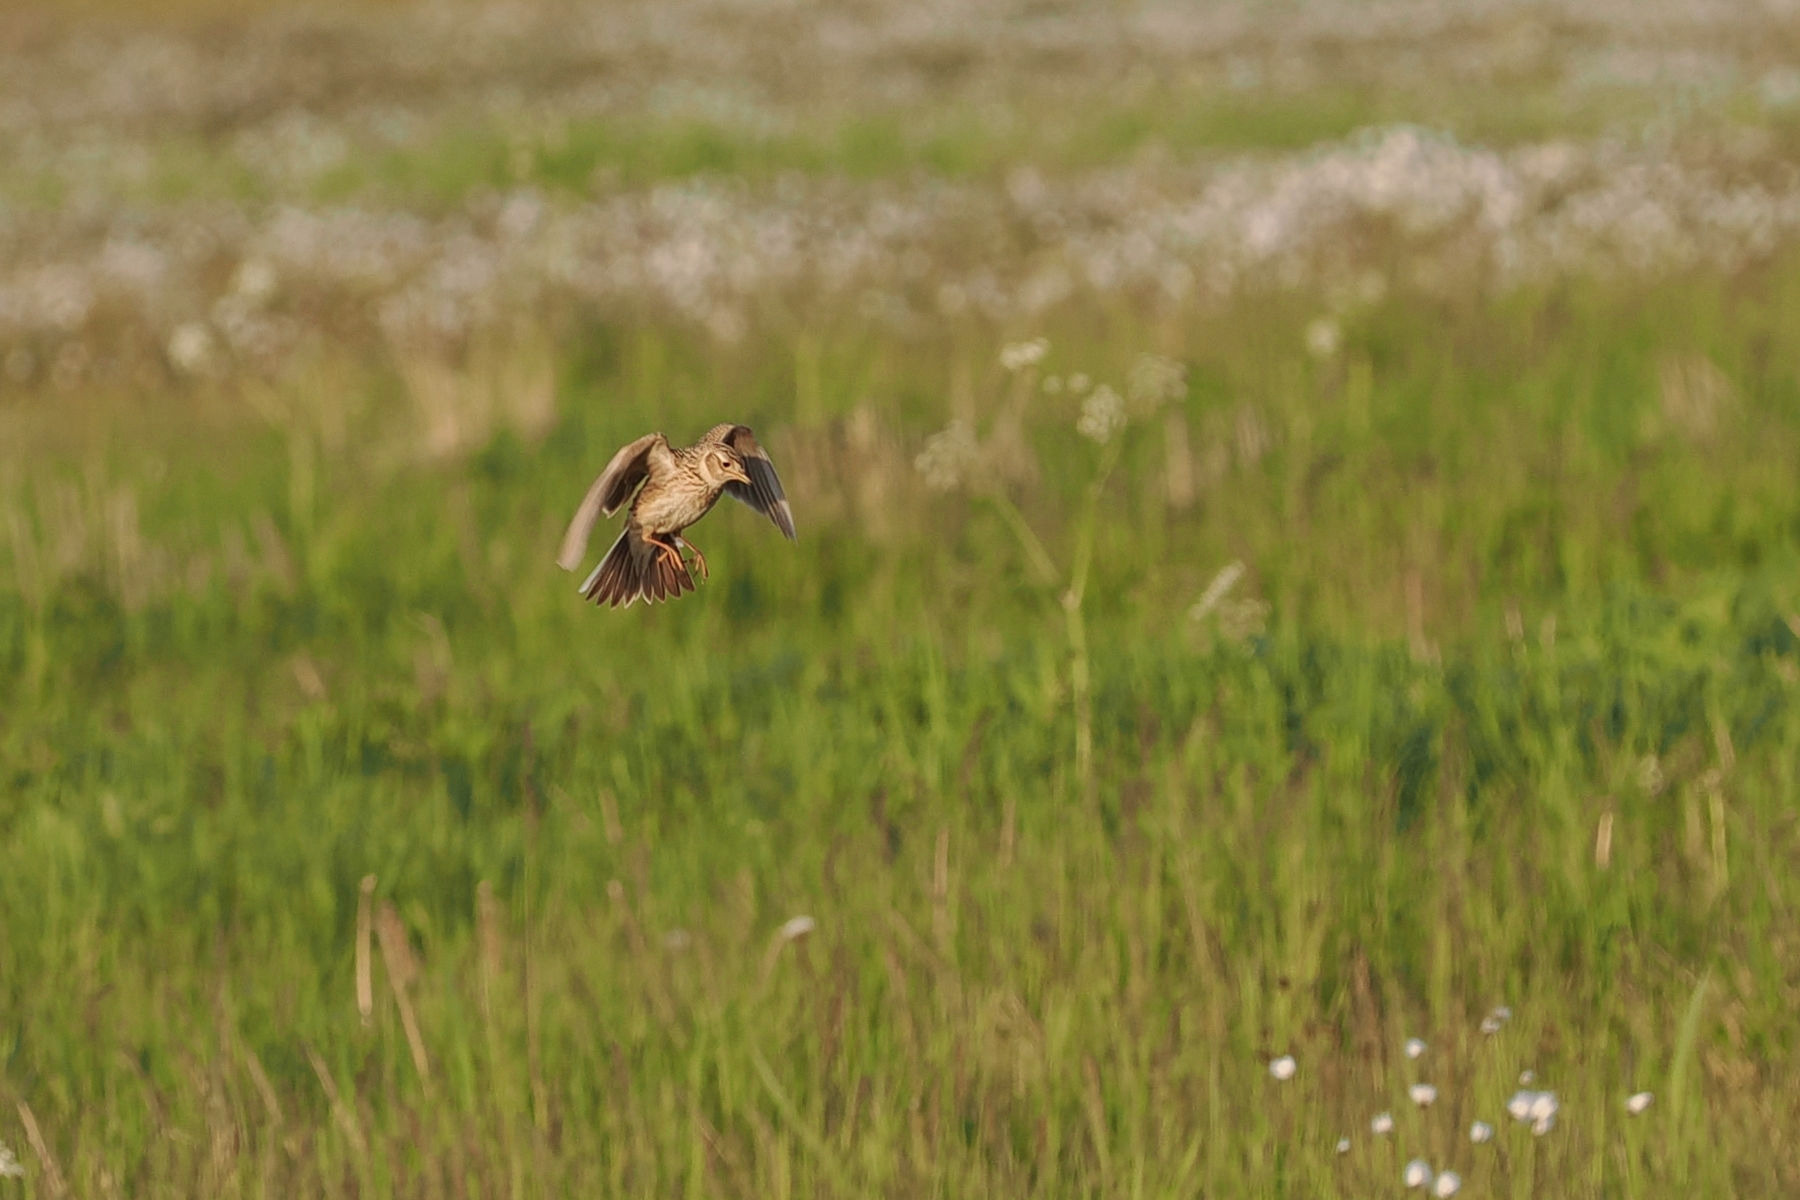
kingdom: Animalia
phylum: Chordata
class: Aves
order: Passeriformes
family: Alaudidae
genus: Alauda
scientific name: Alauda arvensis
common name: Sanglærke
